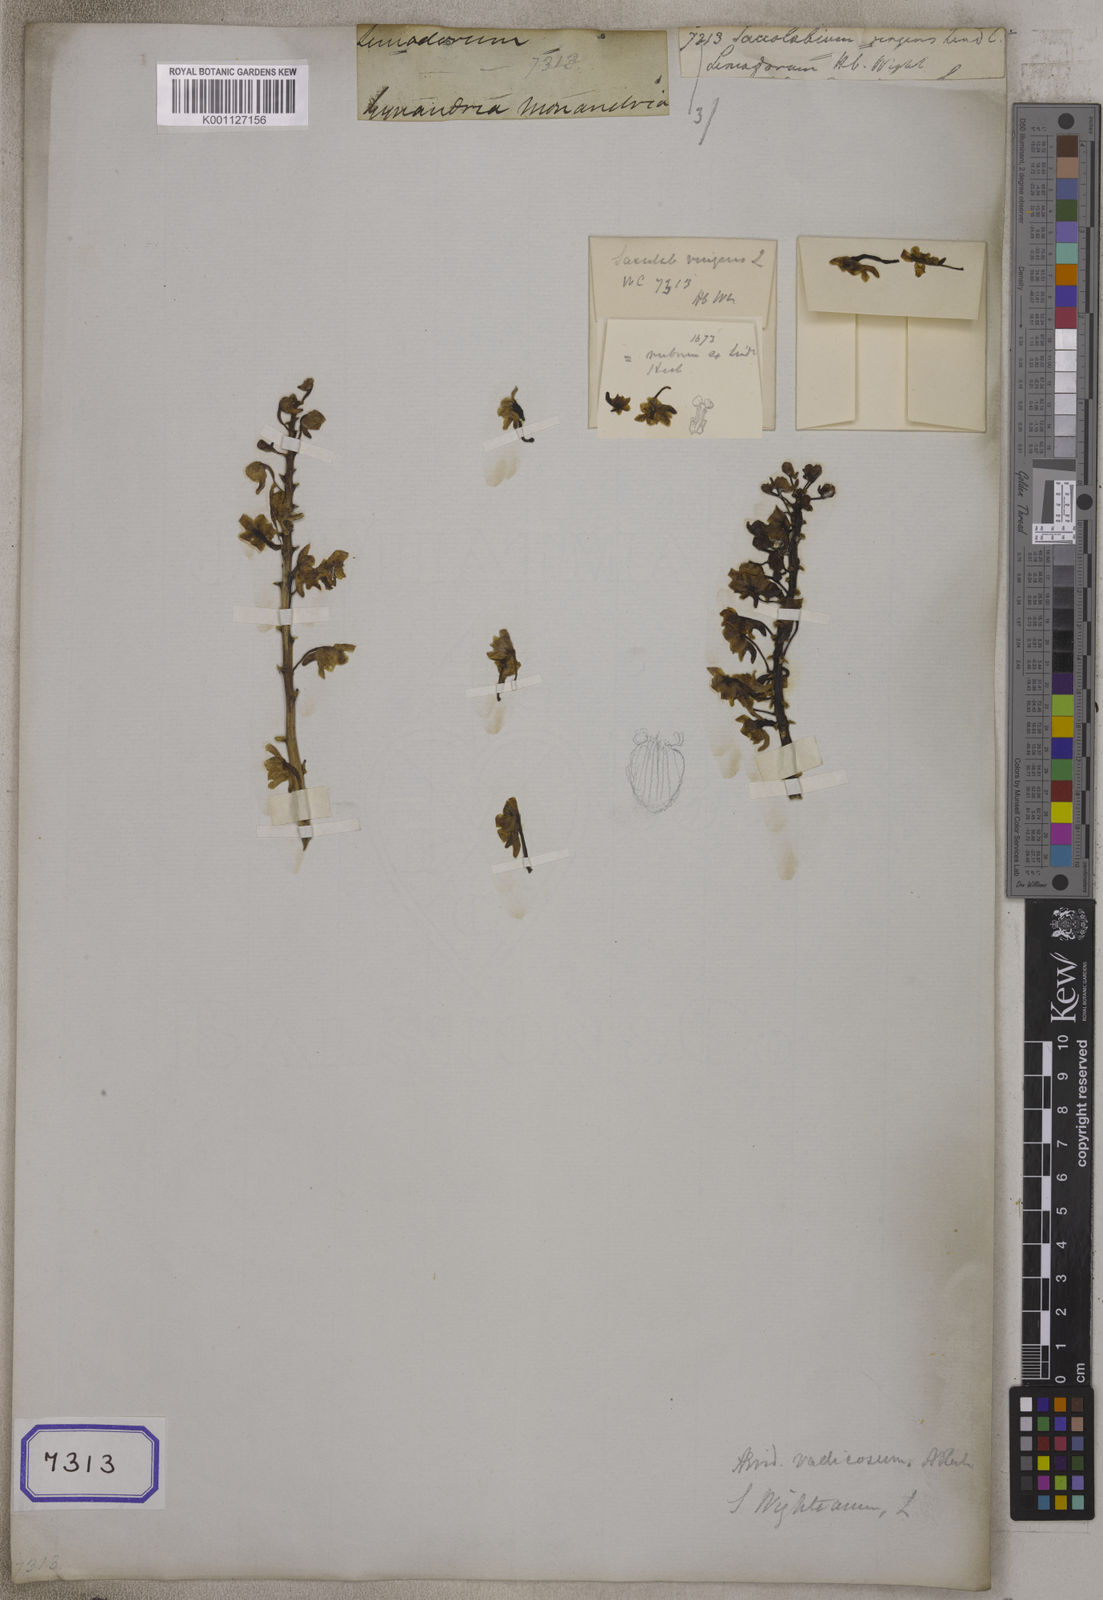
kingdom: Plantae
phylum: Tracheophyta
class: Liliopsida
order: Asparagales
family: Orchidaceae
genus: Aerides
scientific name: Aerides ringens
